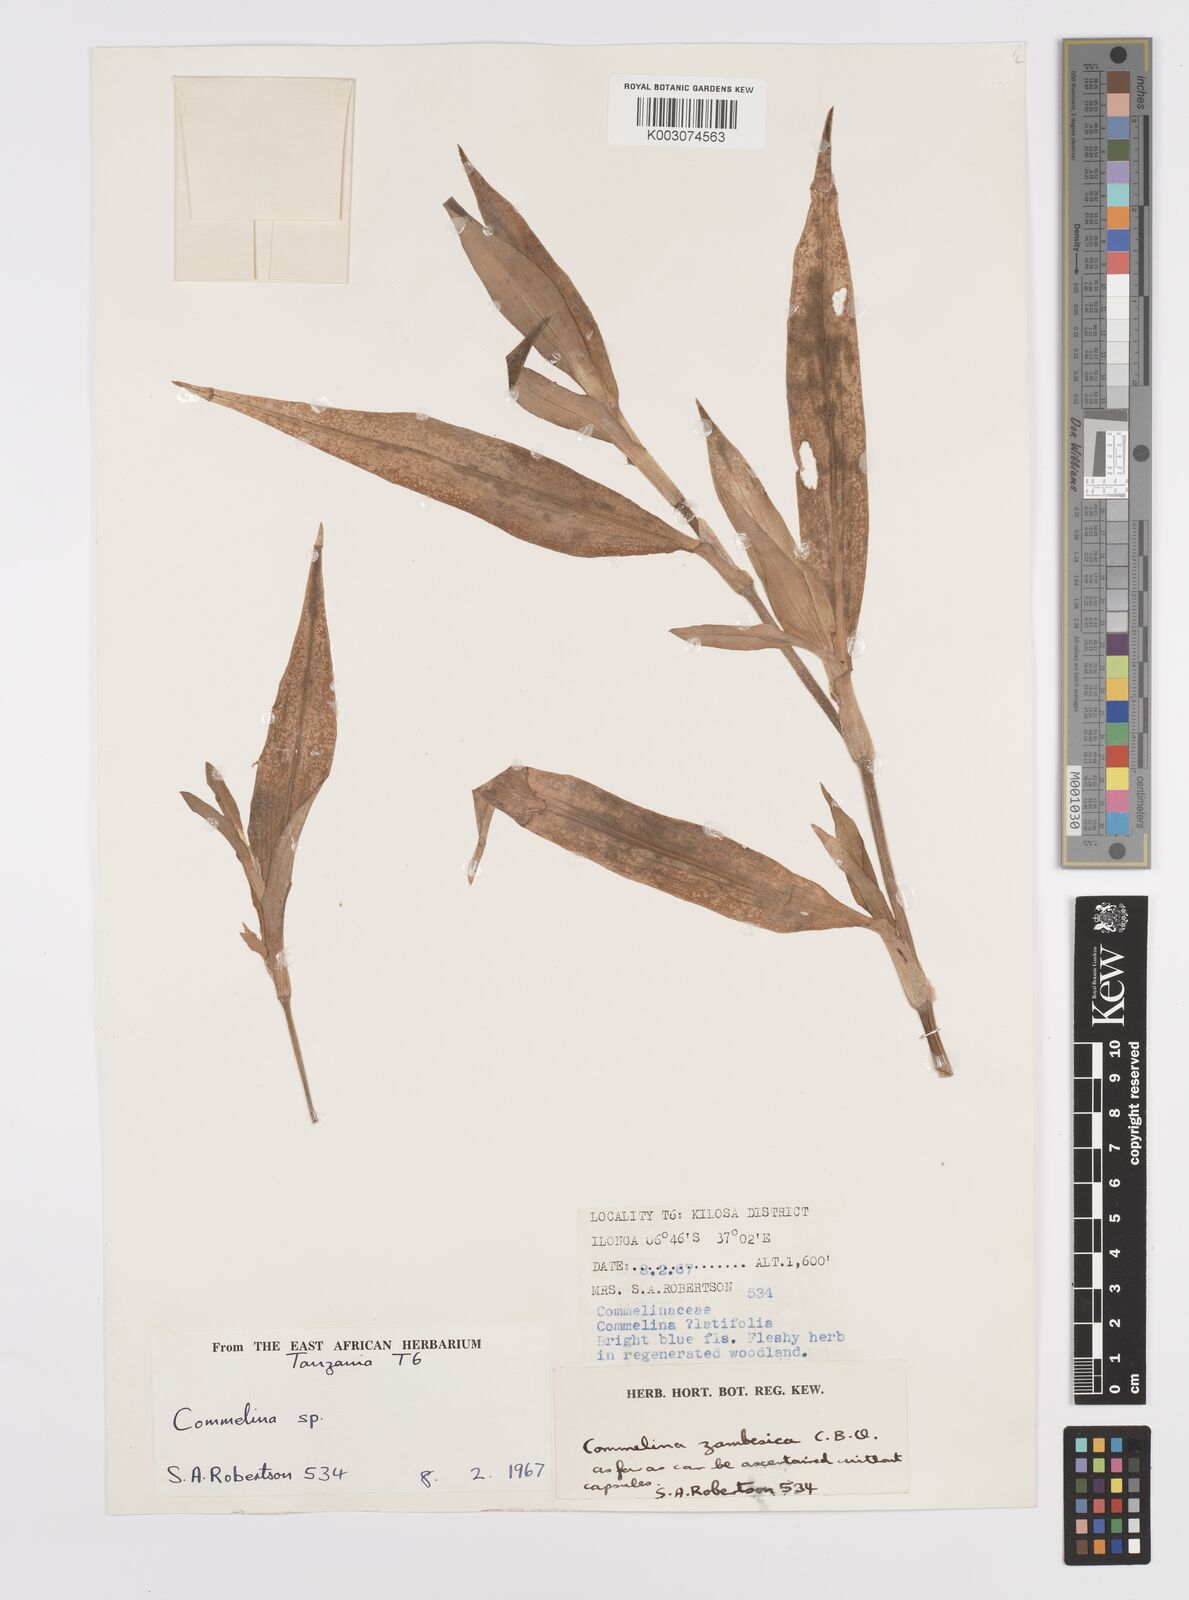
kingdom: Plantae
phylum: Tracheophyta
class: Liliopsida
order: Commelinales
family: Commelinaceae
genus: Commelina
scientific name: Commelina zambesica
